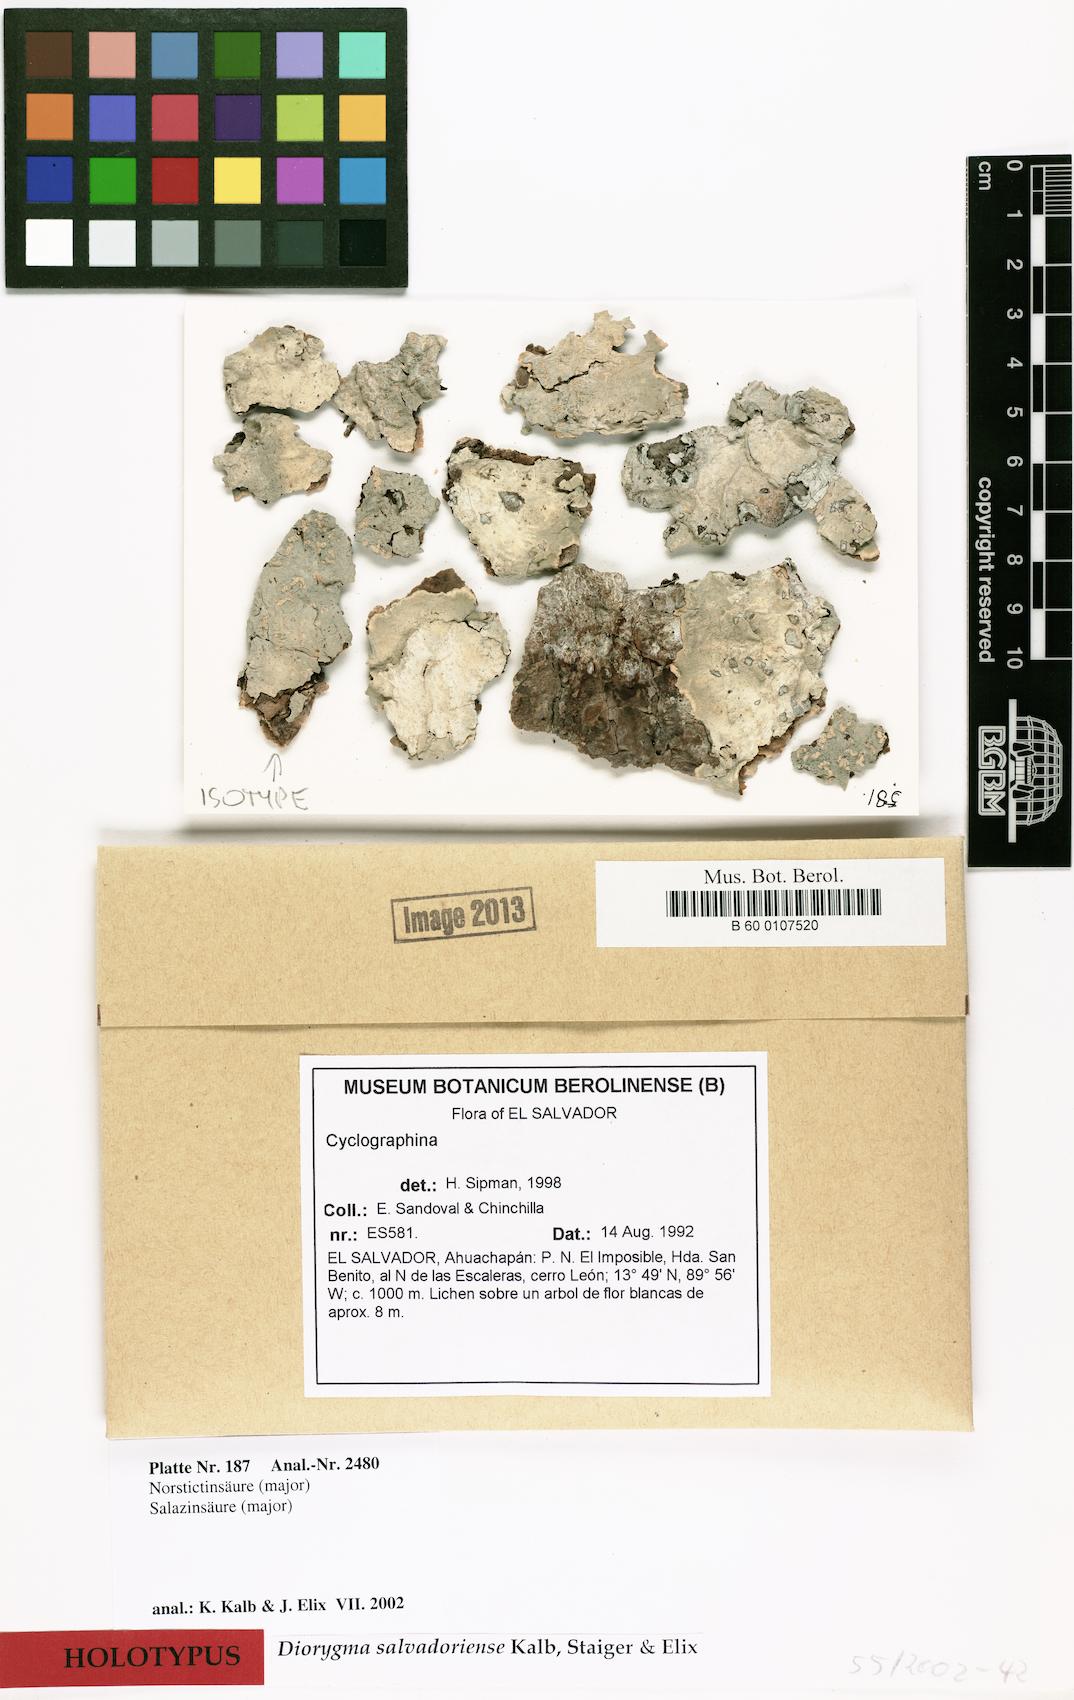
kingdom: Fungi
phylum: Ascomycota
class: Lecanoromycetes
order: Ostropales
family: Graphidaceae
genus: Diorygma
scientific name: Diorygma salvadoriense
